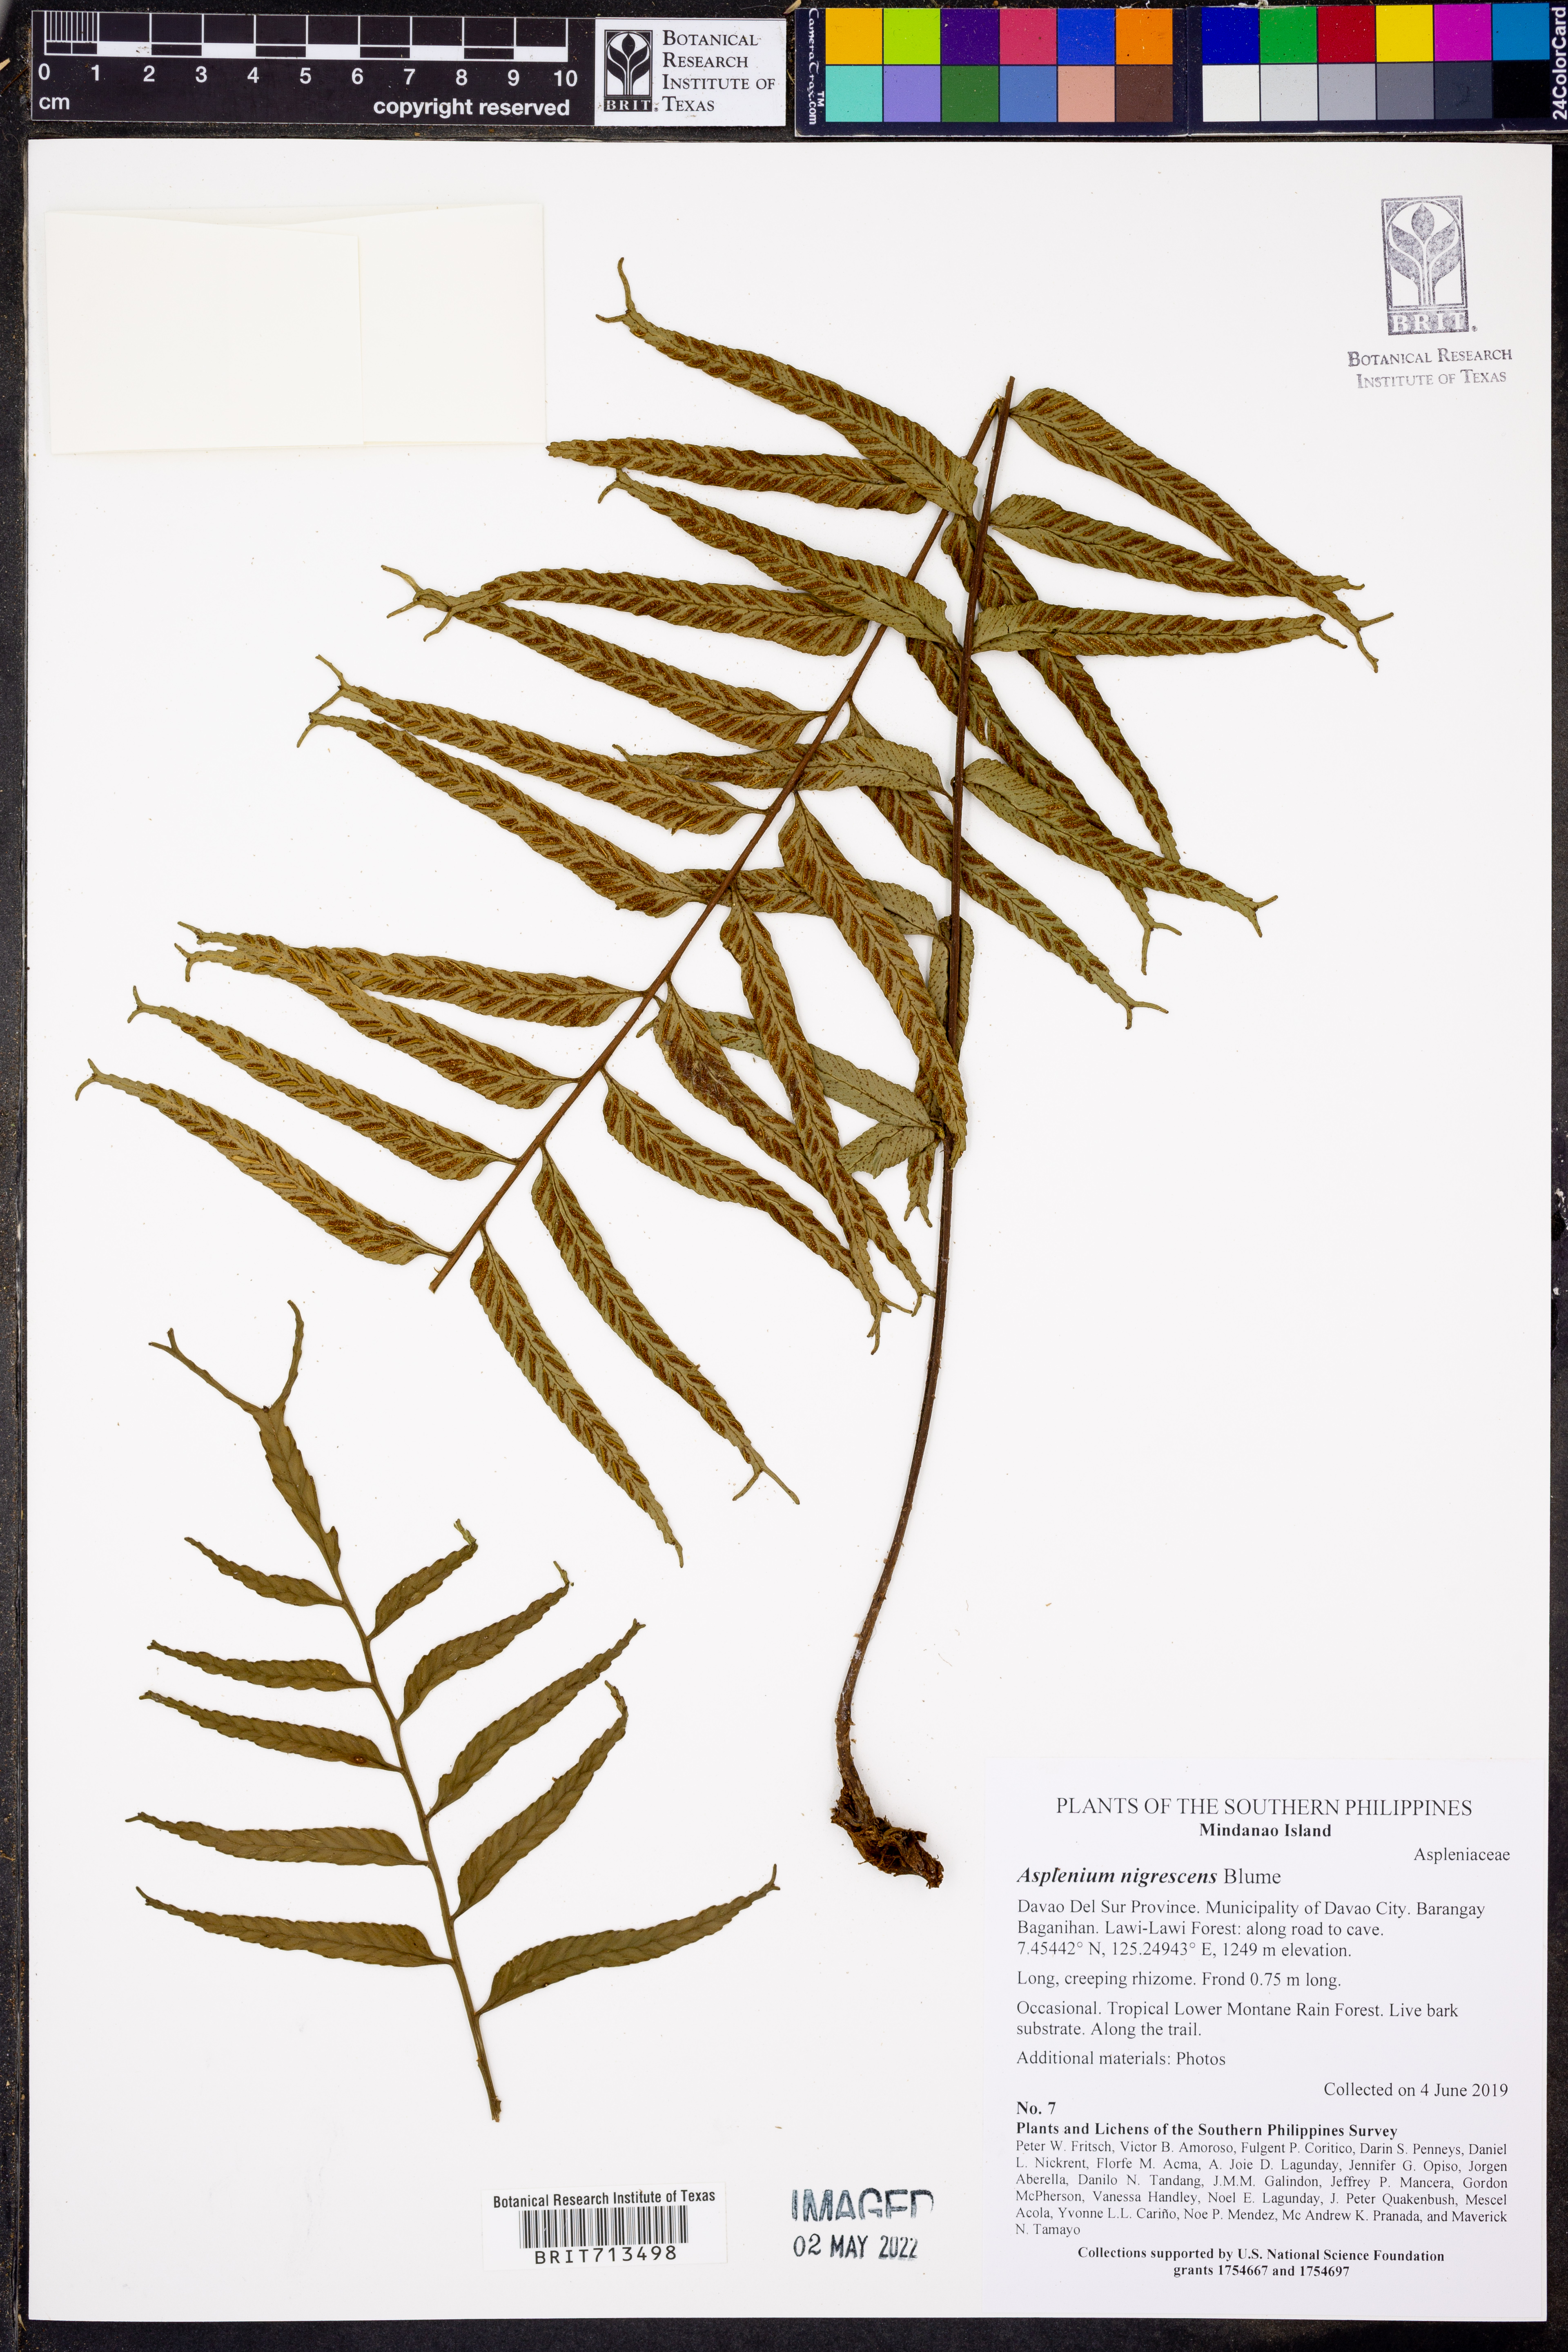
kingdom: Plantae
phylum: Tracheophyta
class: Polypodiopsida
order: Polypodiales
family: Aspleniaceae
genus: Asplenium
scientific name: Asplenium nigrescens
